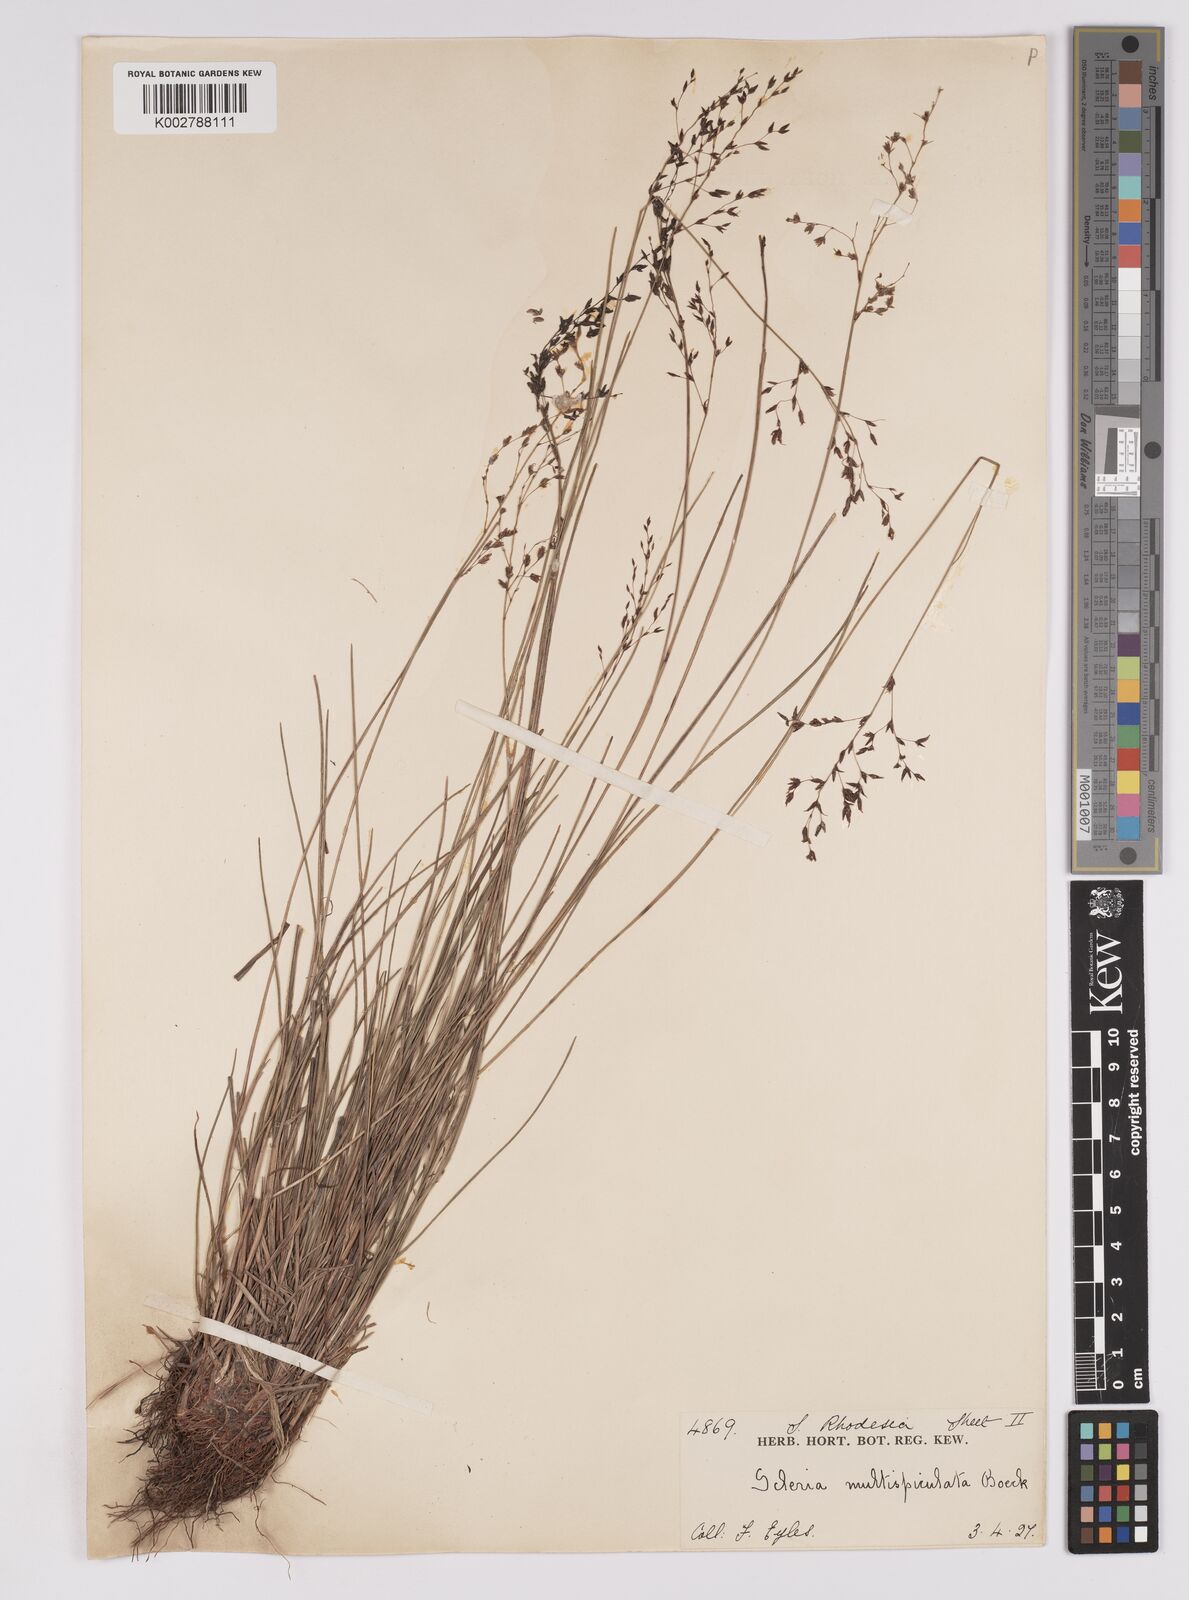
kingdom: Plantae
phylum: Tracheophyta
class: Liliopsida
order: Poales
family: Cyperaceae
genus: Scleria
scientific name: Scleria pooides
